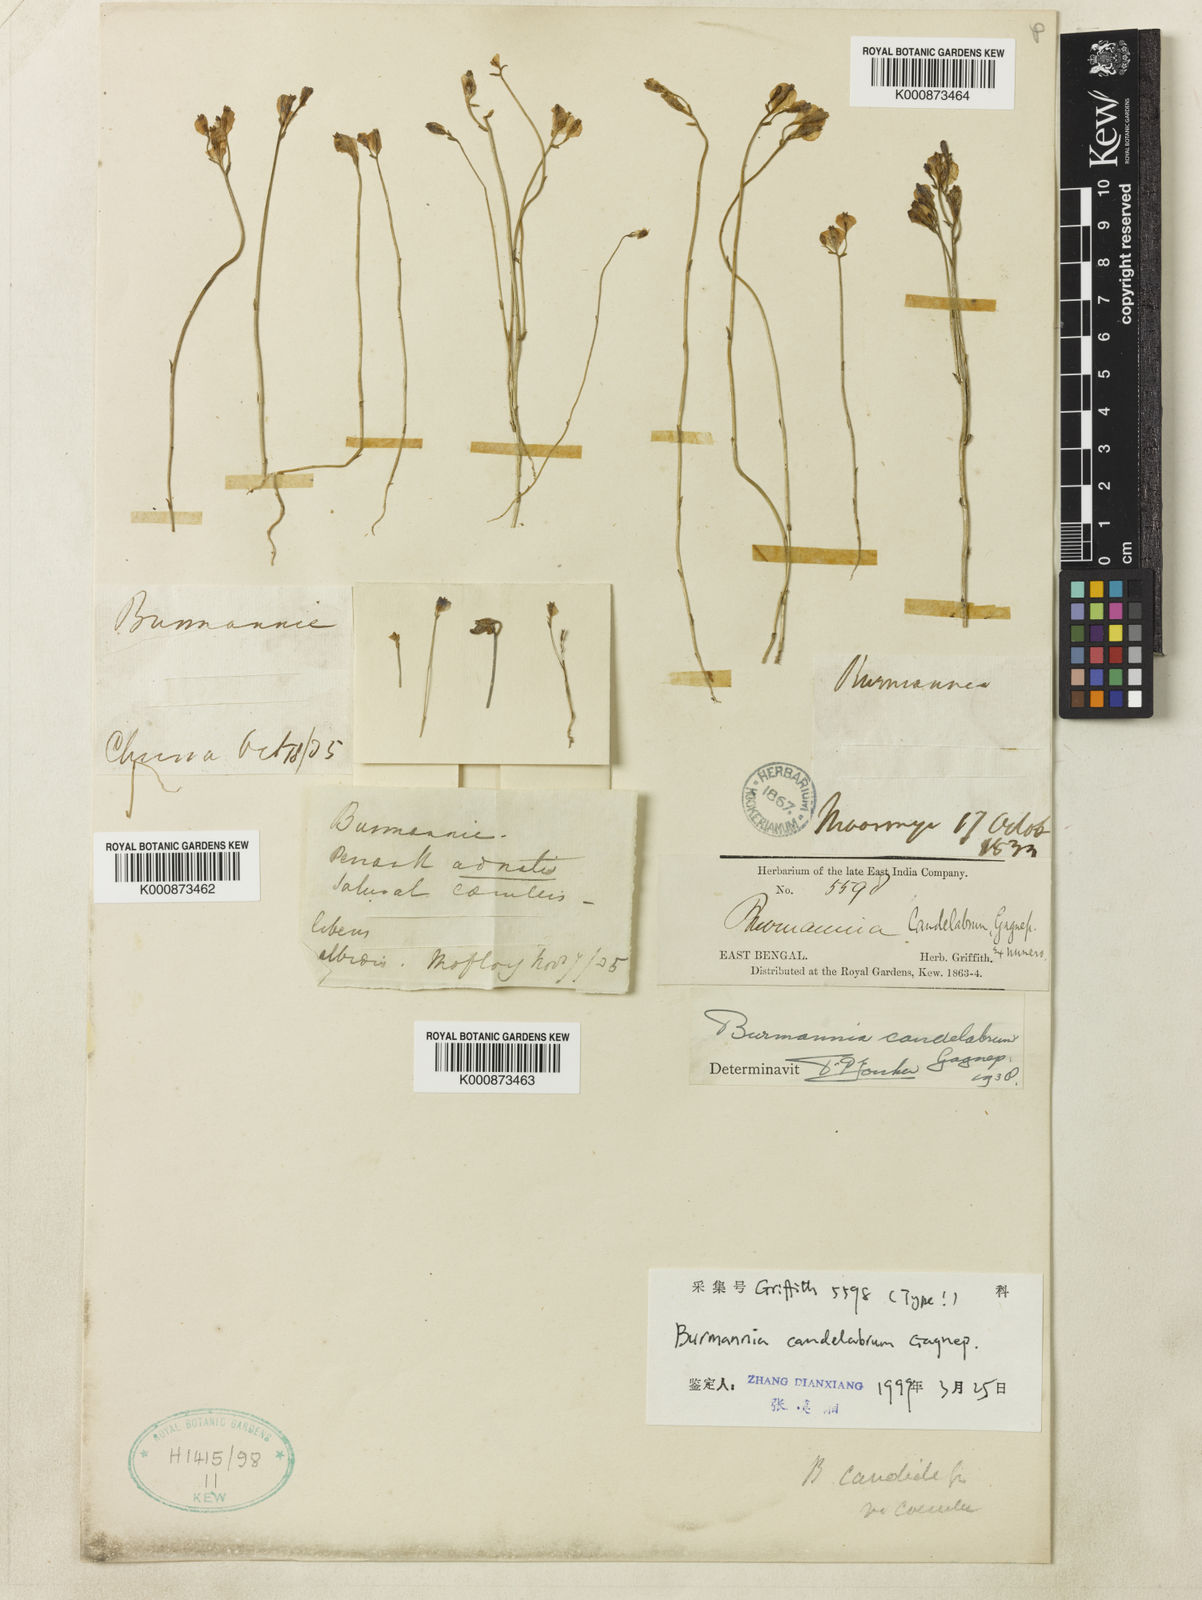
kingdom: Plantae
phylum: Tracheophyta
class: Liliopsida
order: Dioscoreales
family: Burmanniaceae
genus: Burmannia
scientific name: Burmannia candelabrum
